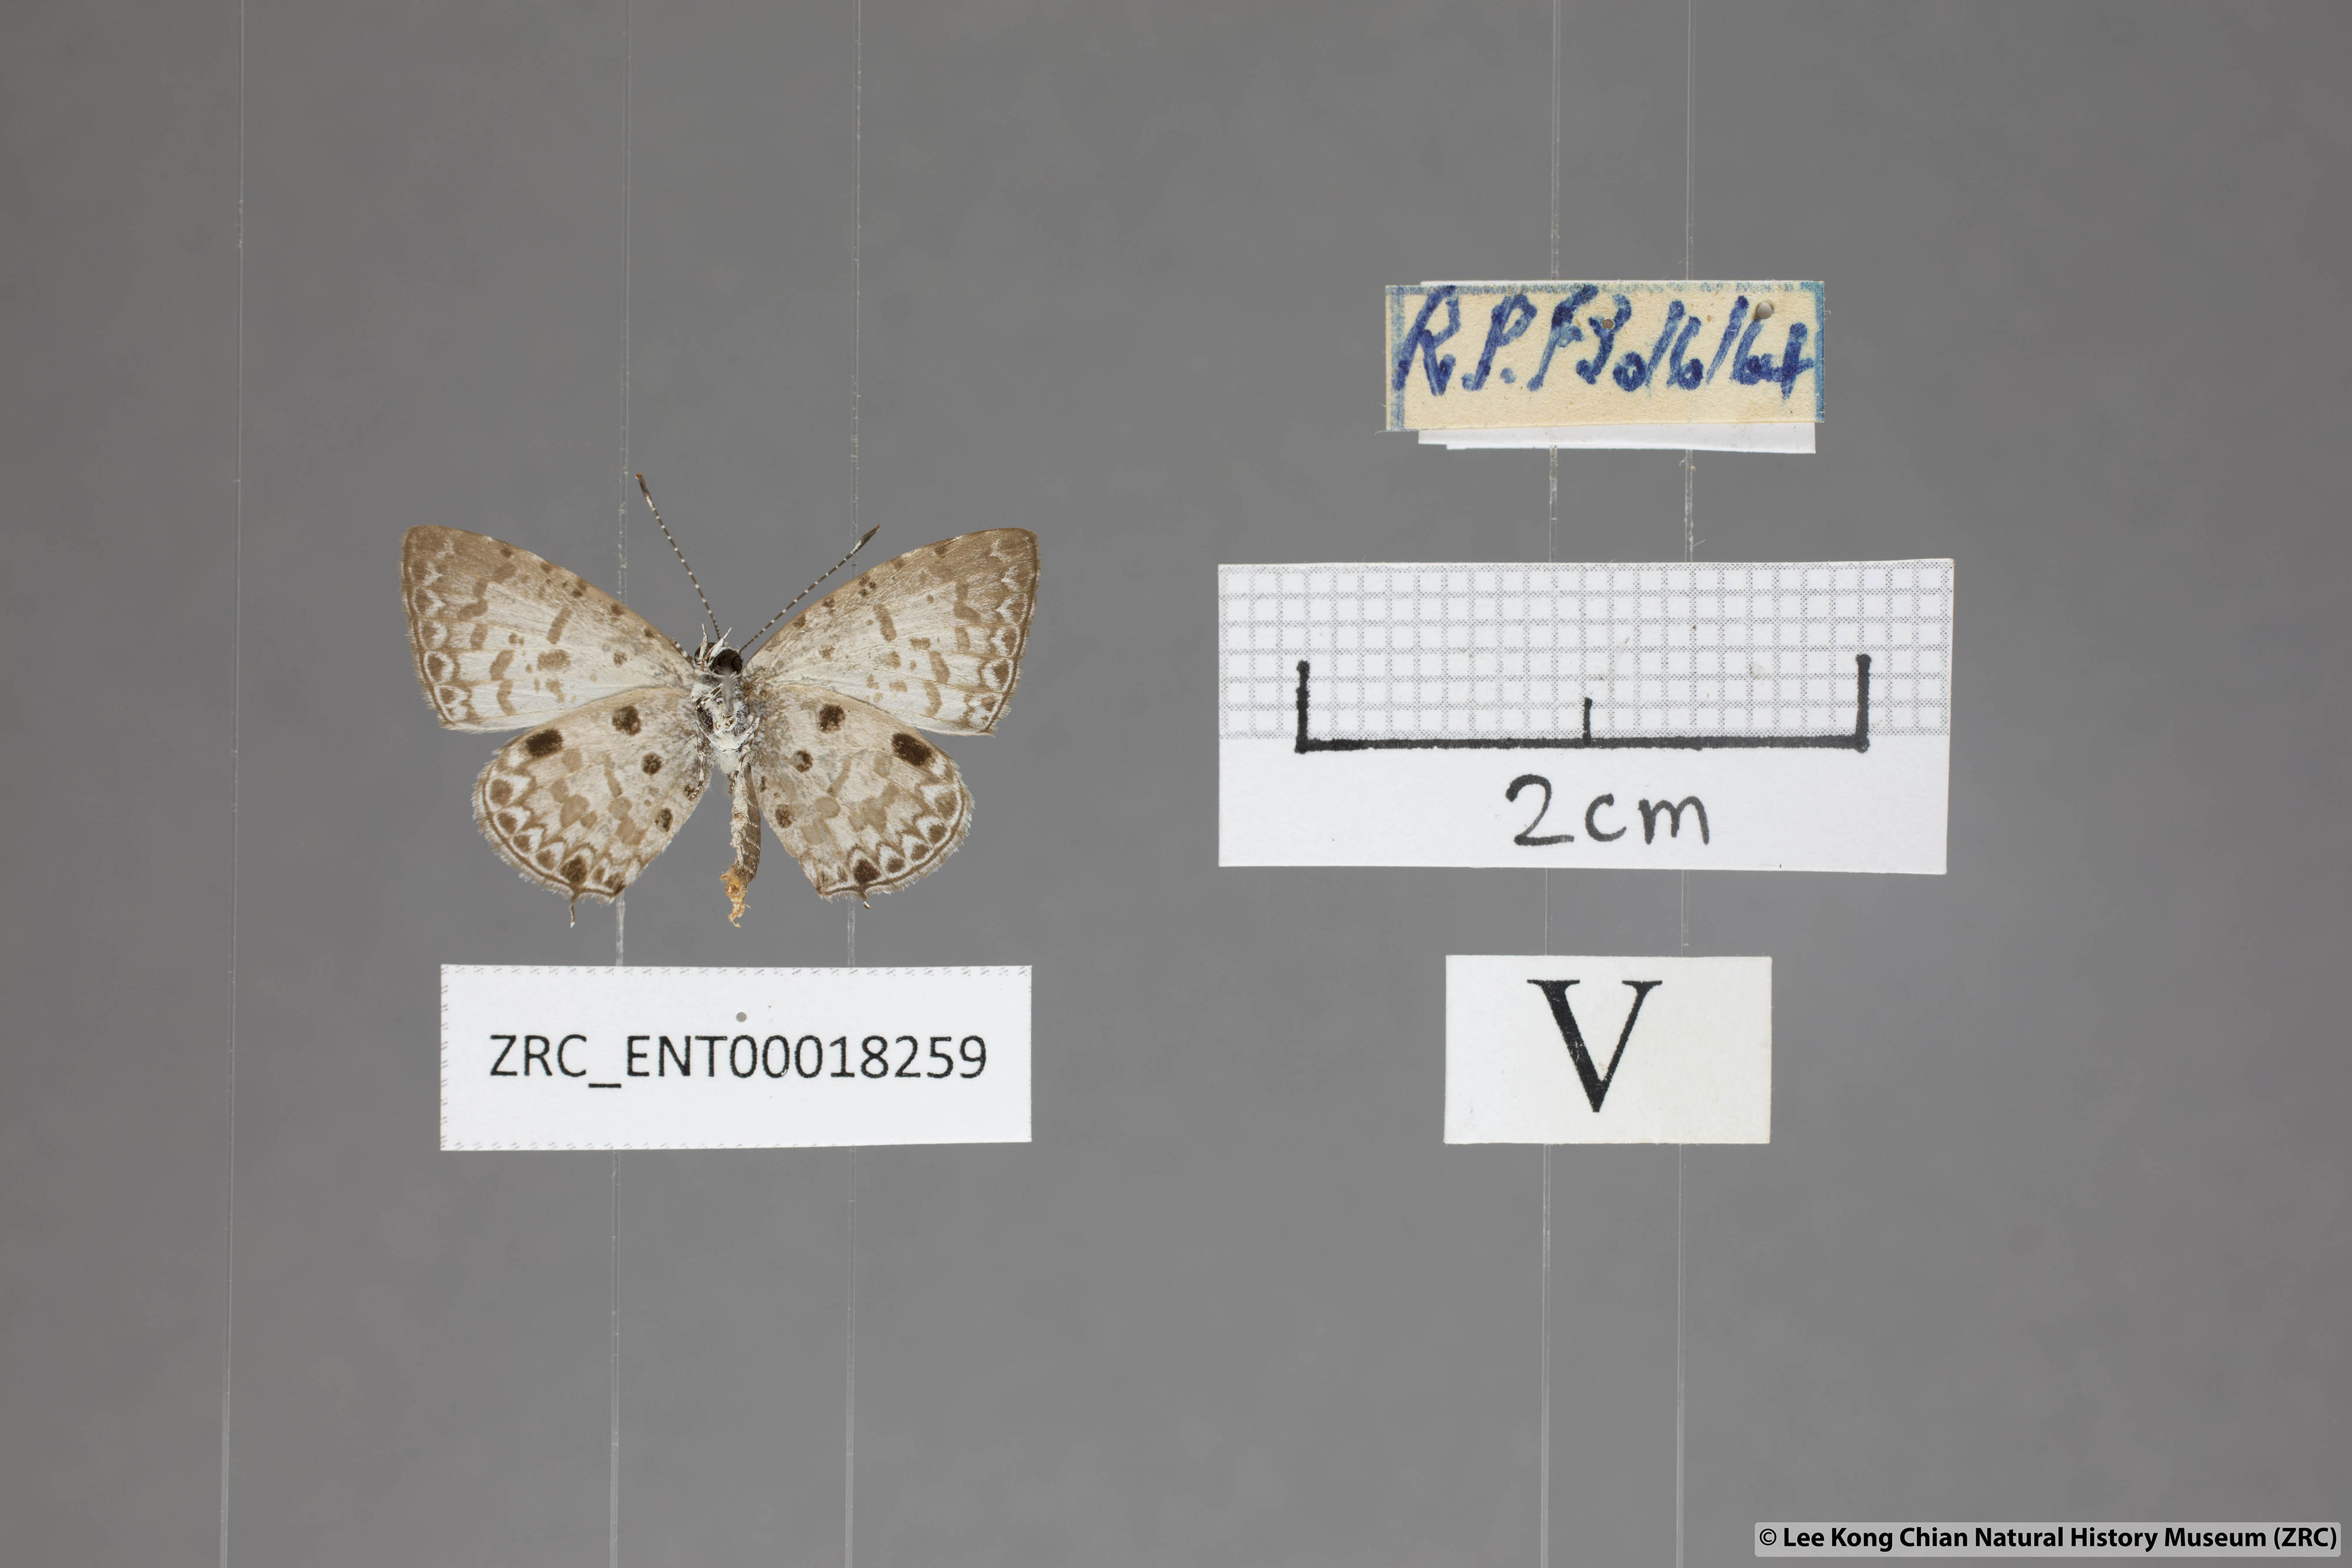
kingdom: Animalia
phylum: Arthropoda
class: Insecta
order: Lepidoptera
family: Lycaenidae
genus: Megisba
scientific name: Megisba malaya
